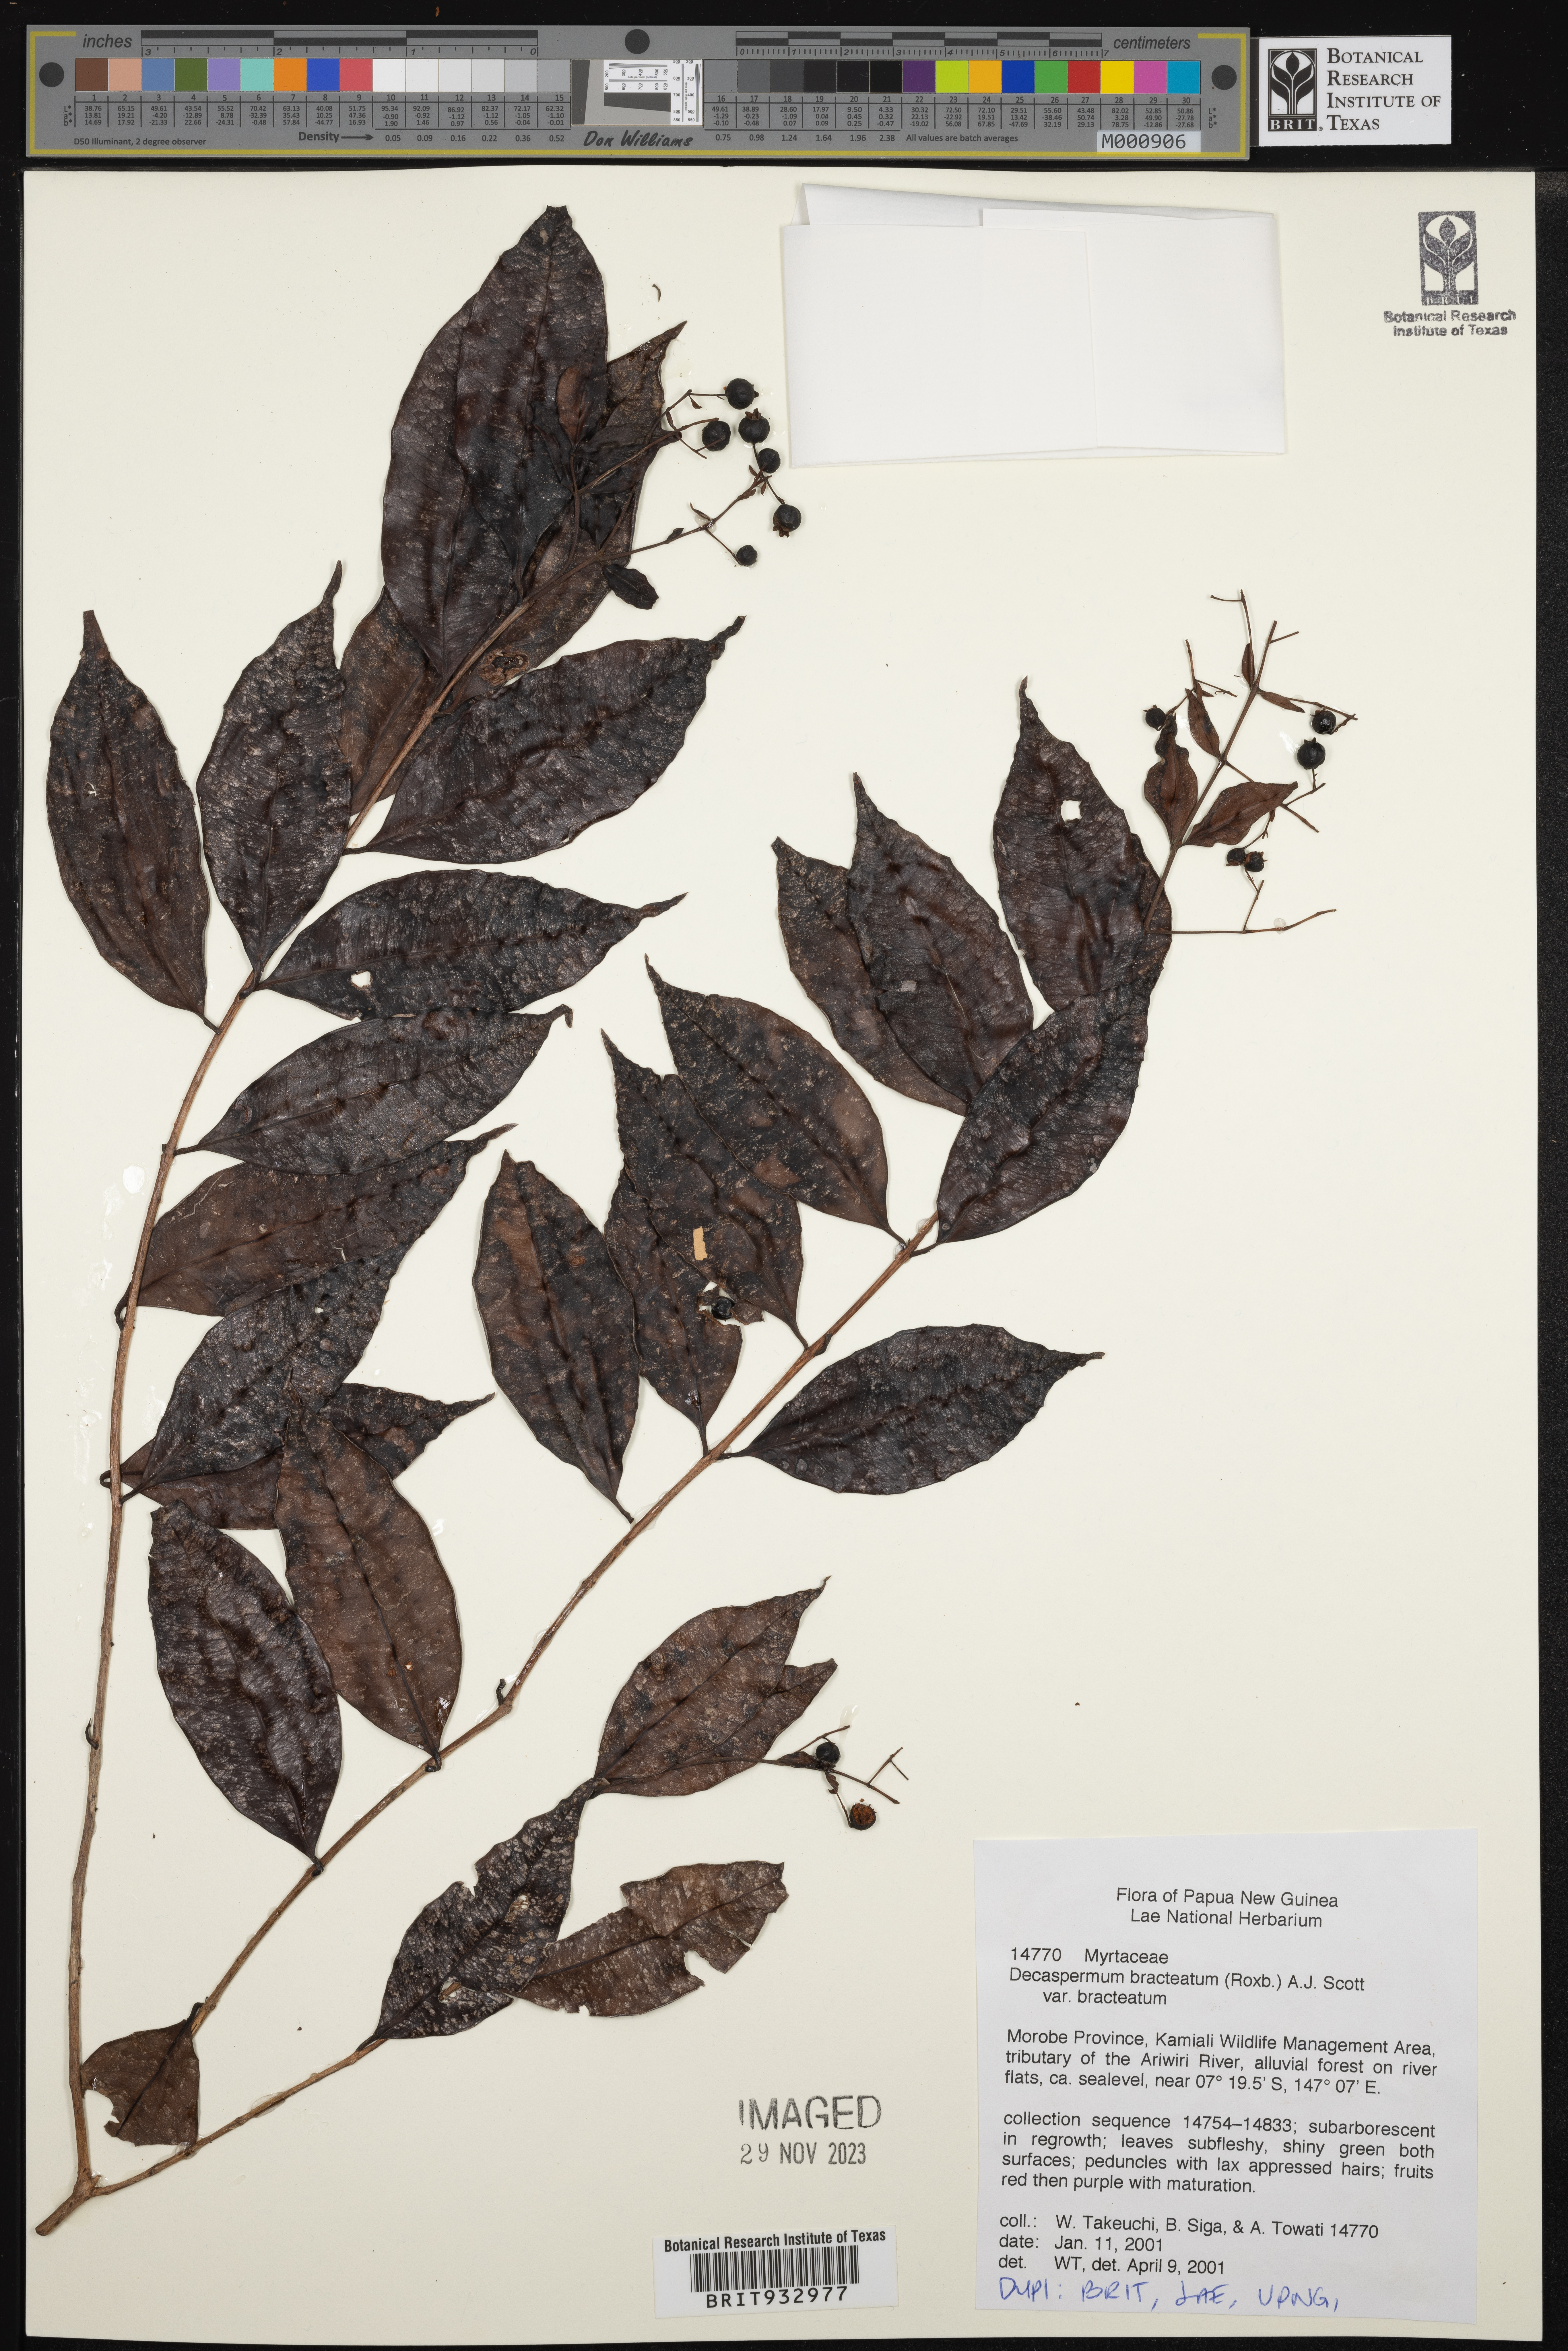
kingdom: Plantae
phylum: Tracheophyta
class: Magnoliopsida
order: Myrtales
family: Myrtaceae
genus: Decaspermum
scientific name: Decaspermum
